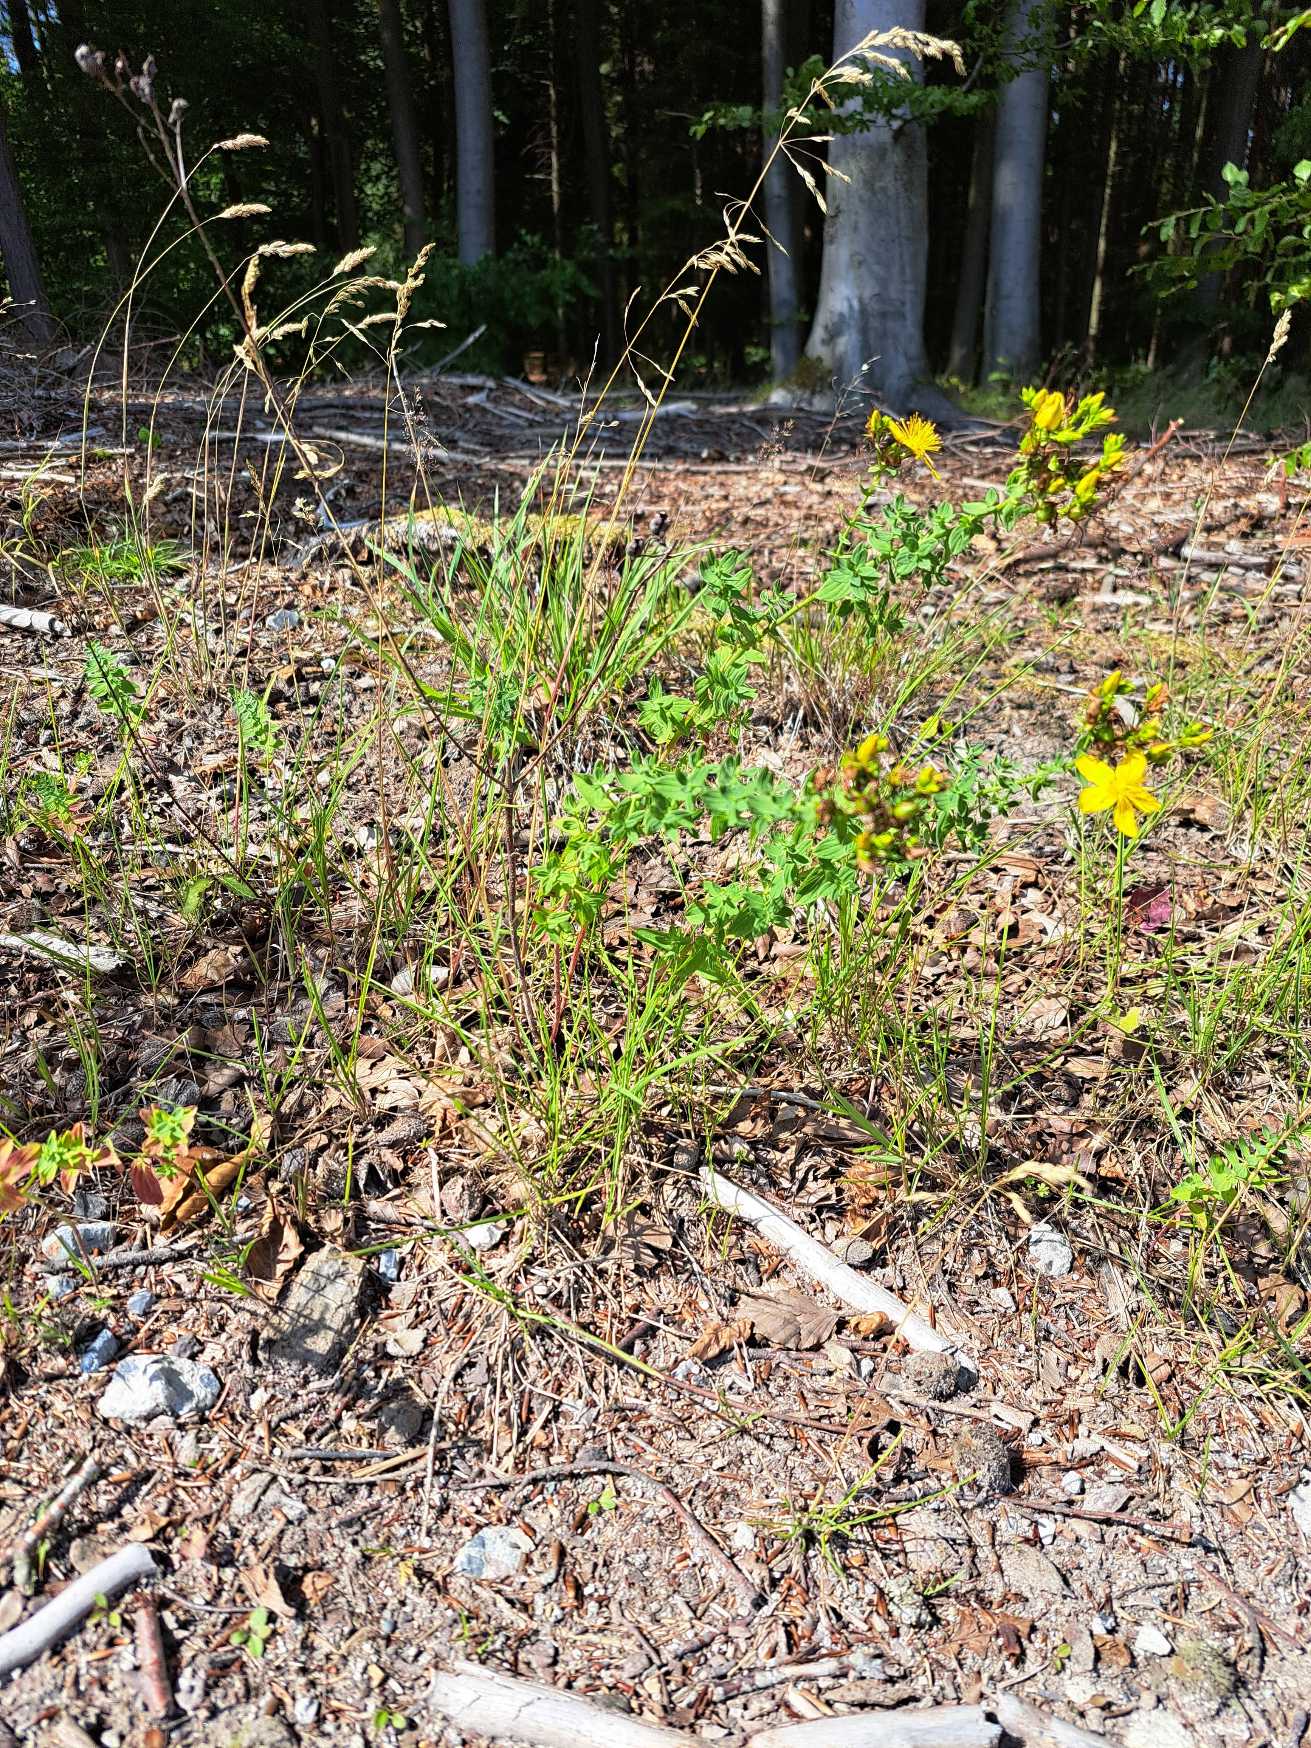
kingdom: Plantae
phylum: Tracheophyta
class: Magnoliopsida
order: Malpighiales
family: Hypericaceae
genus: Hypericum
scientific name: Hypericum perforatum
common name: Prikbladet perikon
